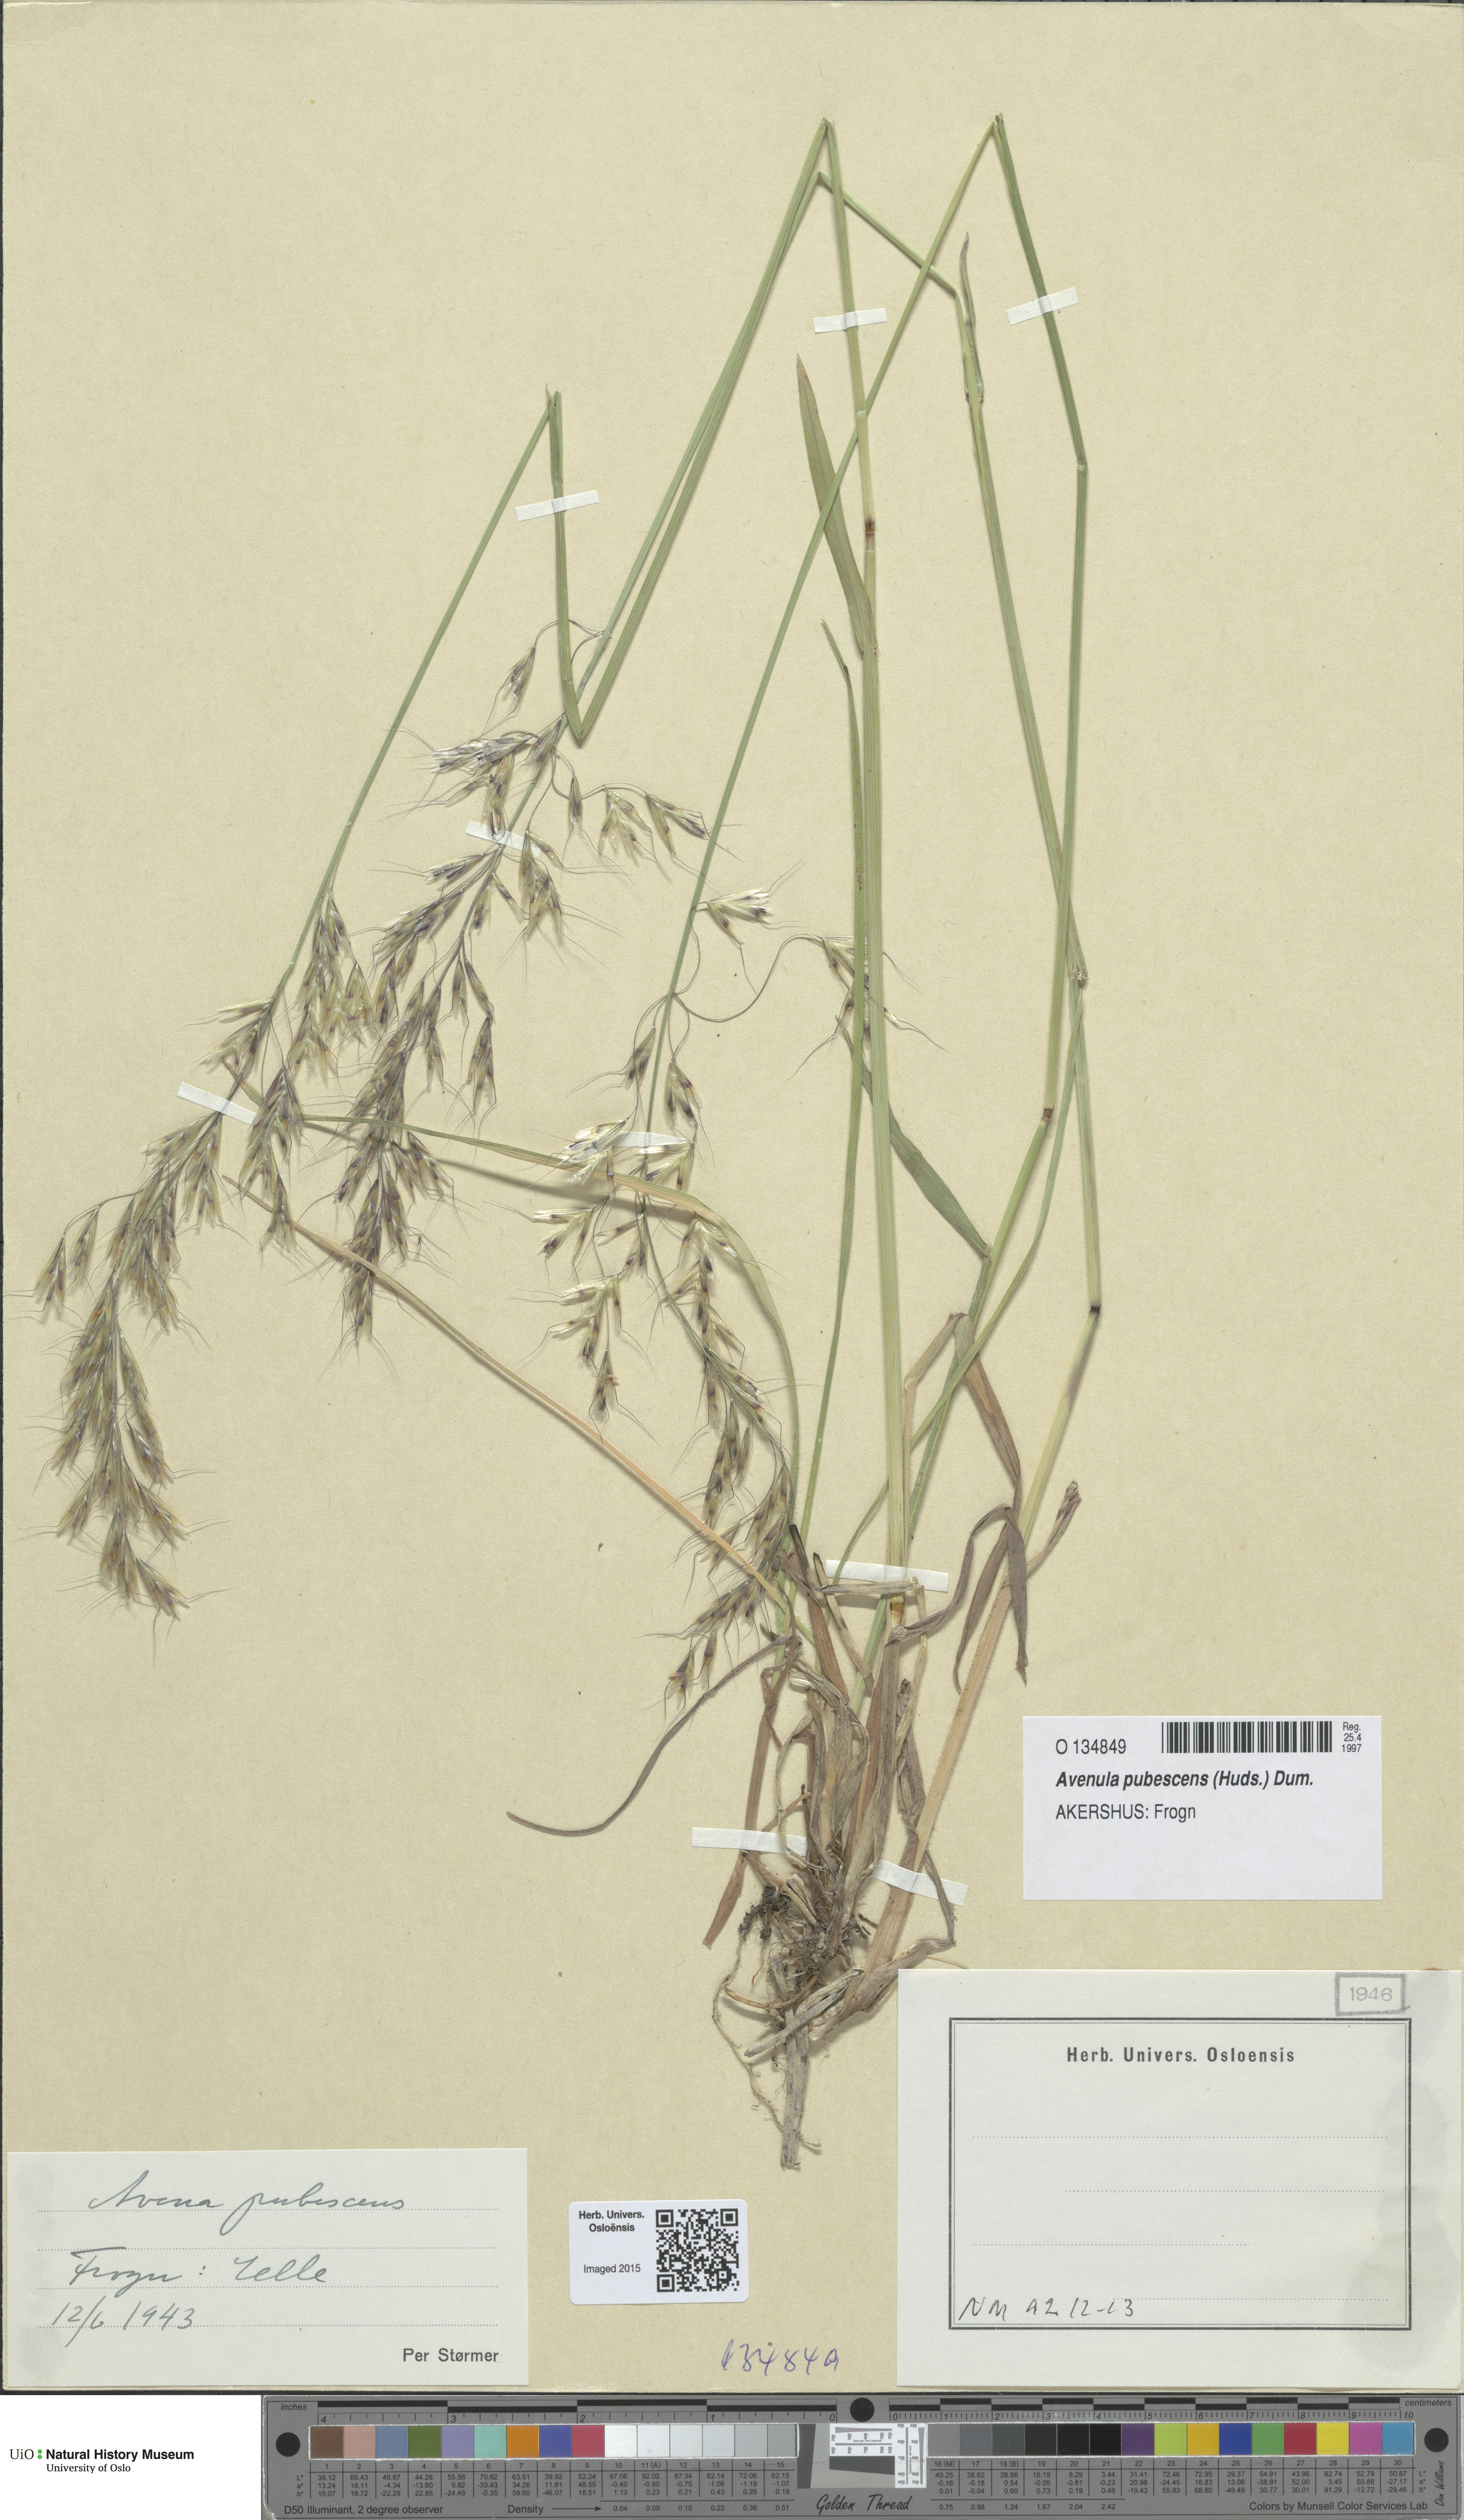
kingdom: Plantae
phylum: Tracheophyta
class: Liliopsida
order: Poales
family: Poaceae
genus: Avenula
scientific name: Avenula pubescens
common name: Downy alpine oatgrass
